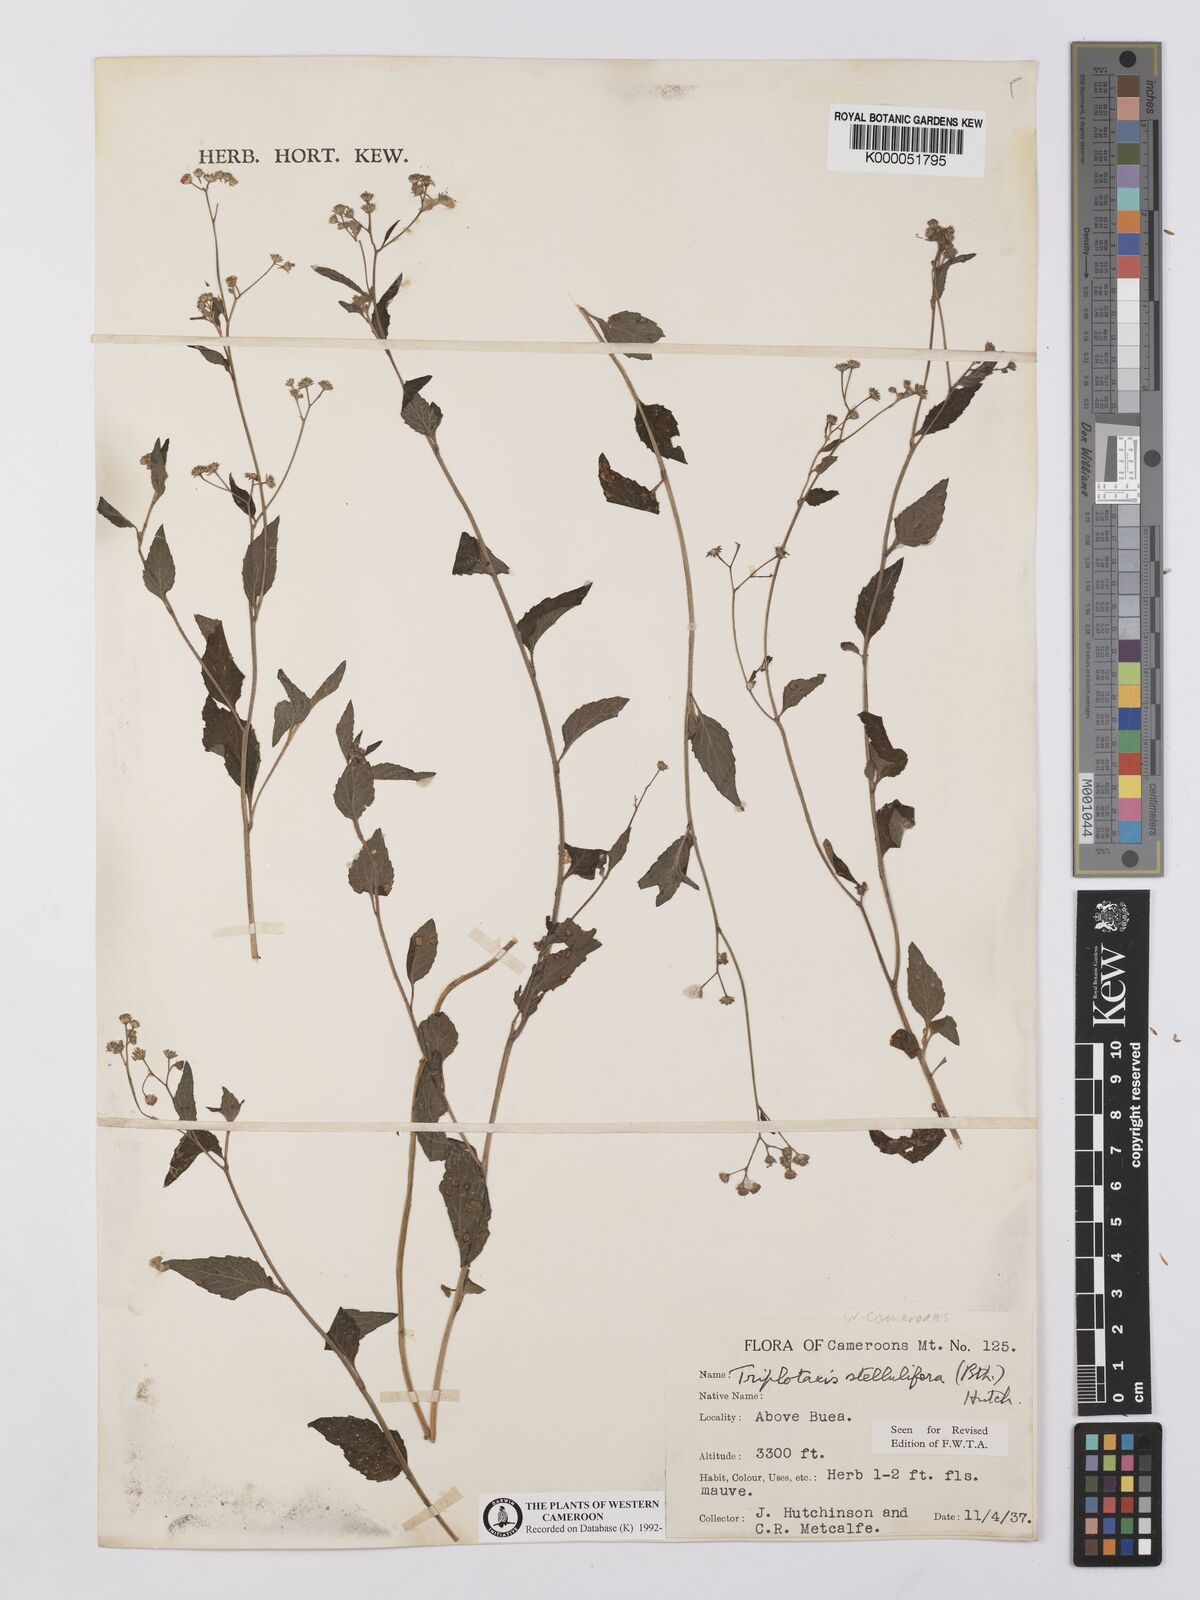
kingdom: Plantae
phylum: Tracheophyta
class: Magnoliopsida
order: Asterales
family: Asteraceae
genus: Cyanthillium
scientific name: Cyanthillium stelluliferum
